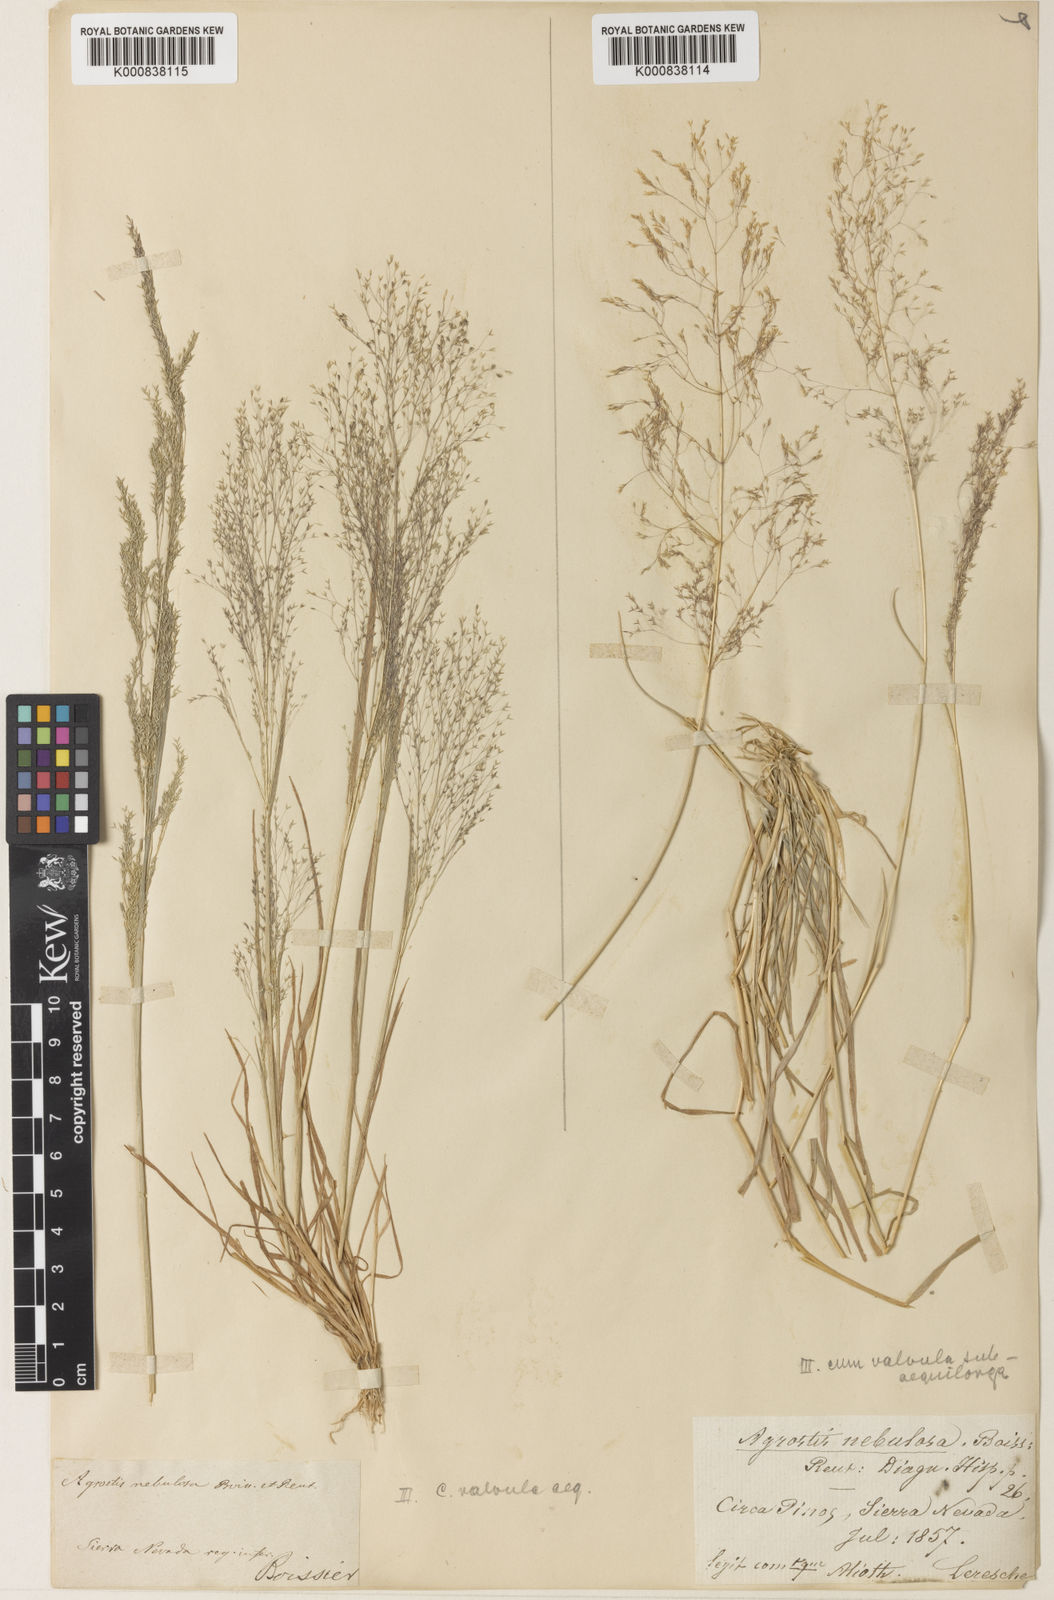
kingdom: Plantae
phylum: Tracheophyta
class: Liliopsida
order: Poales
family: Poaceae
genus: Agrostis
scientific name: Agrostis nebulosa
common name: Cloud grass
